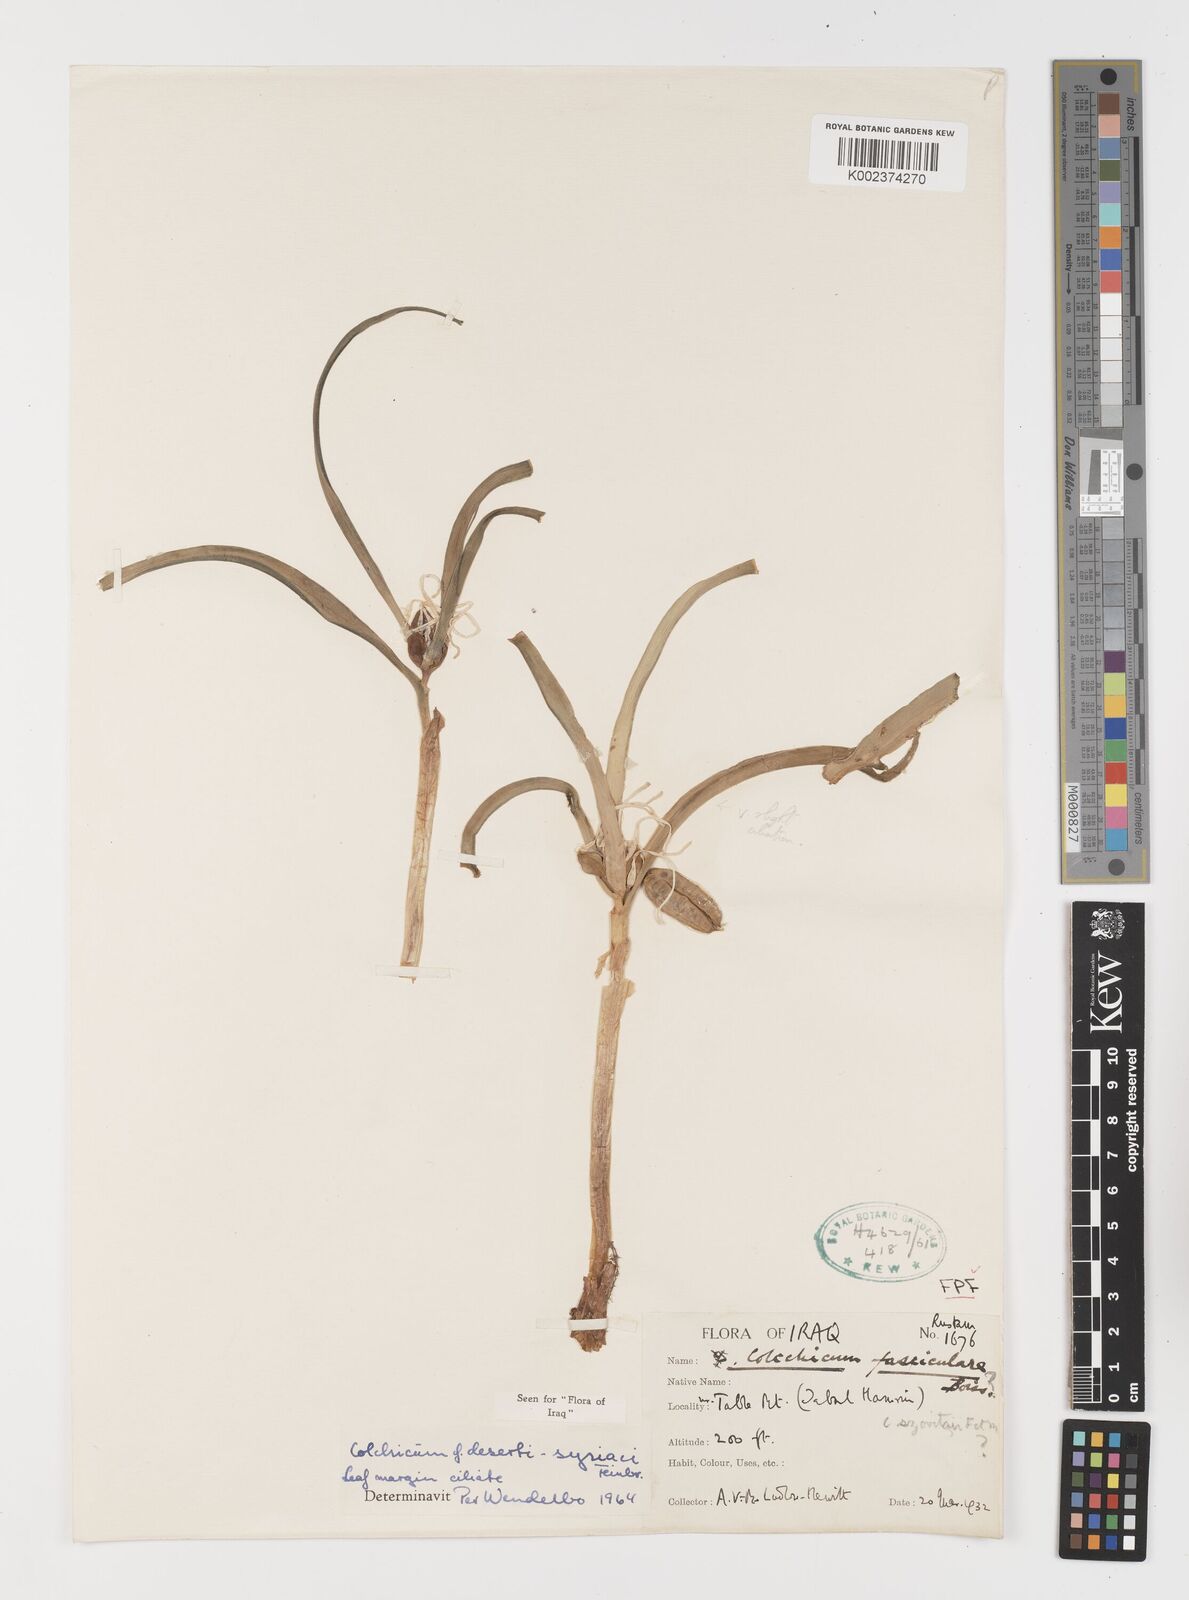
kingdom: Plantae
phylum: Tracheophyta
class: Liliopsida
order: Liliales
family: Colchicaceae
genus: Colchicum
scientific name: Colchicum schimperi
